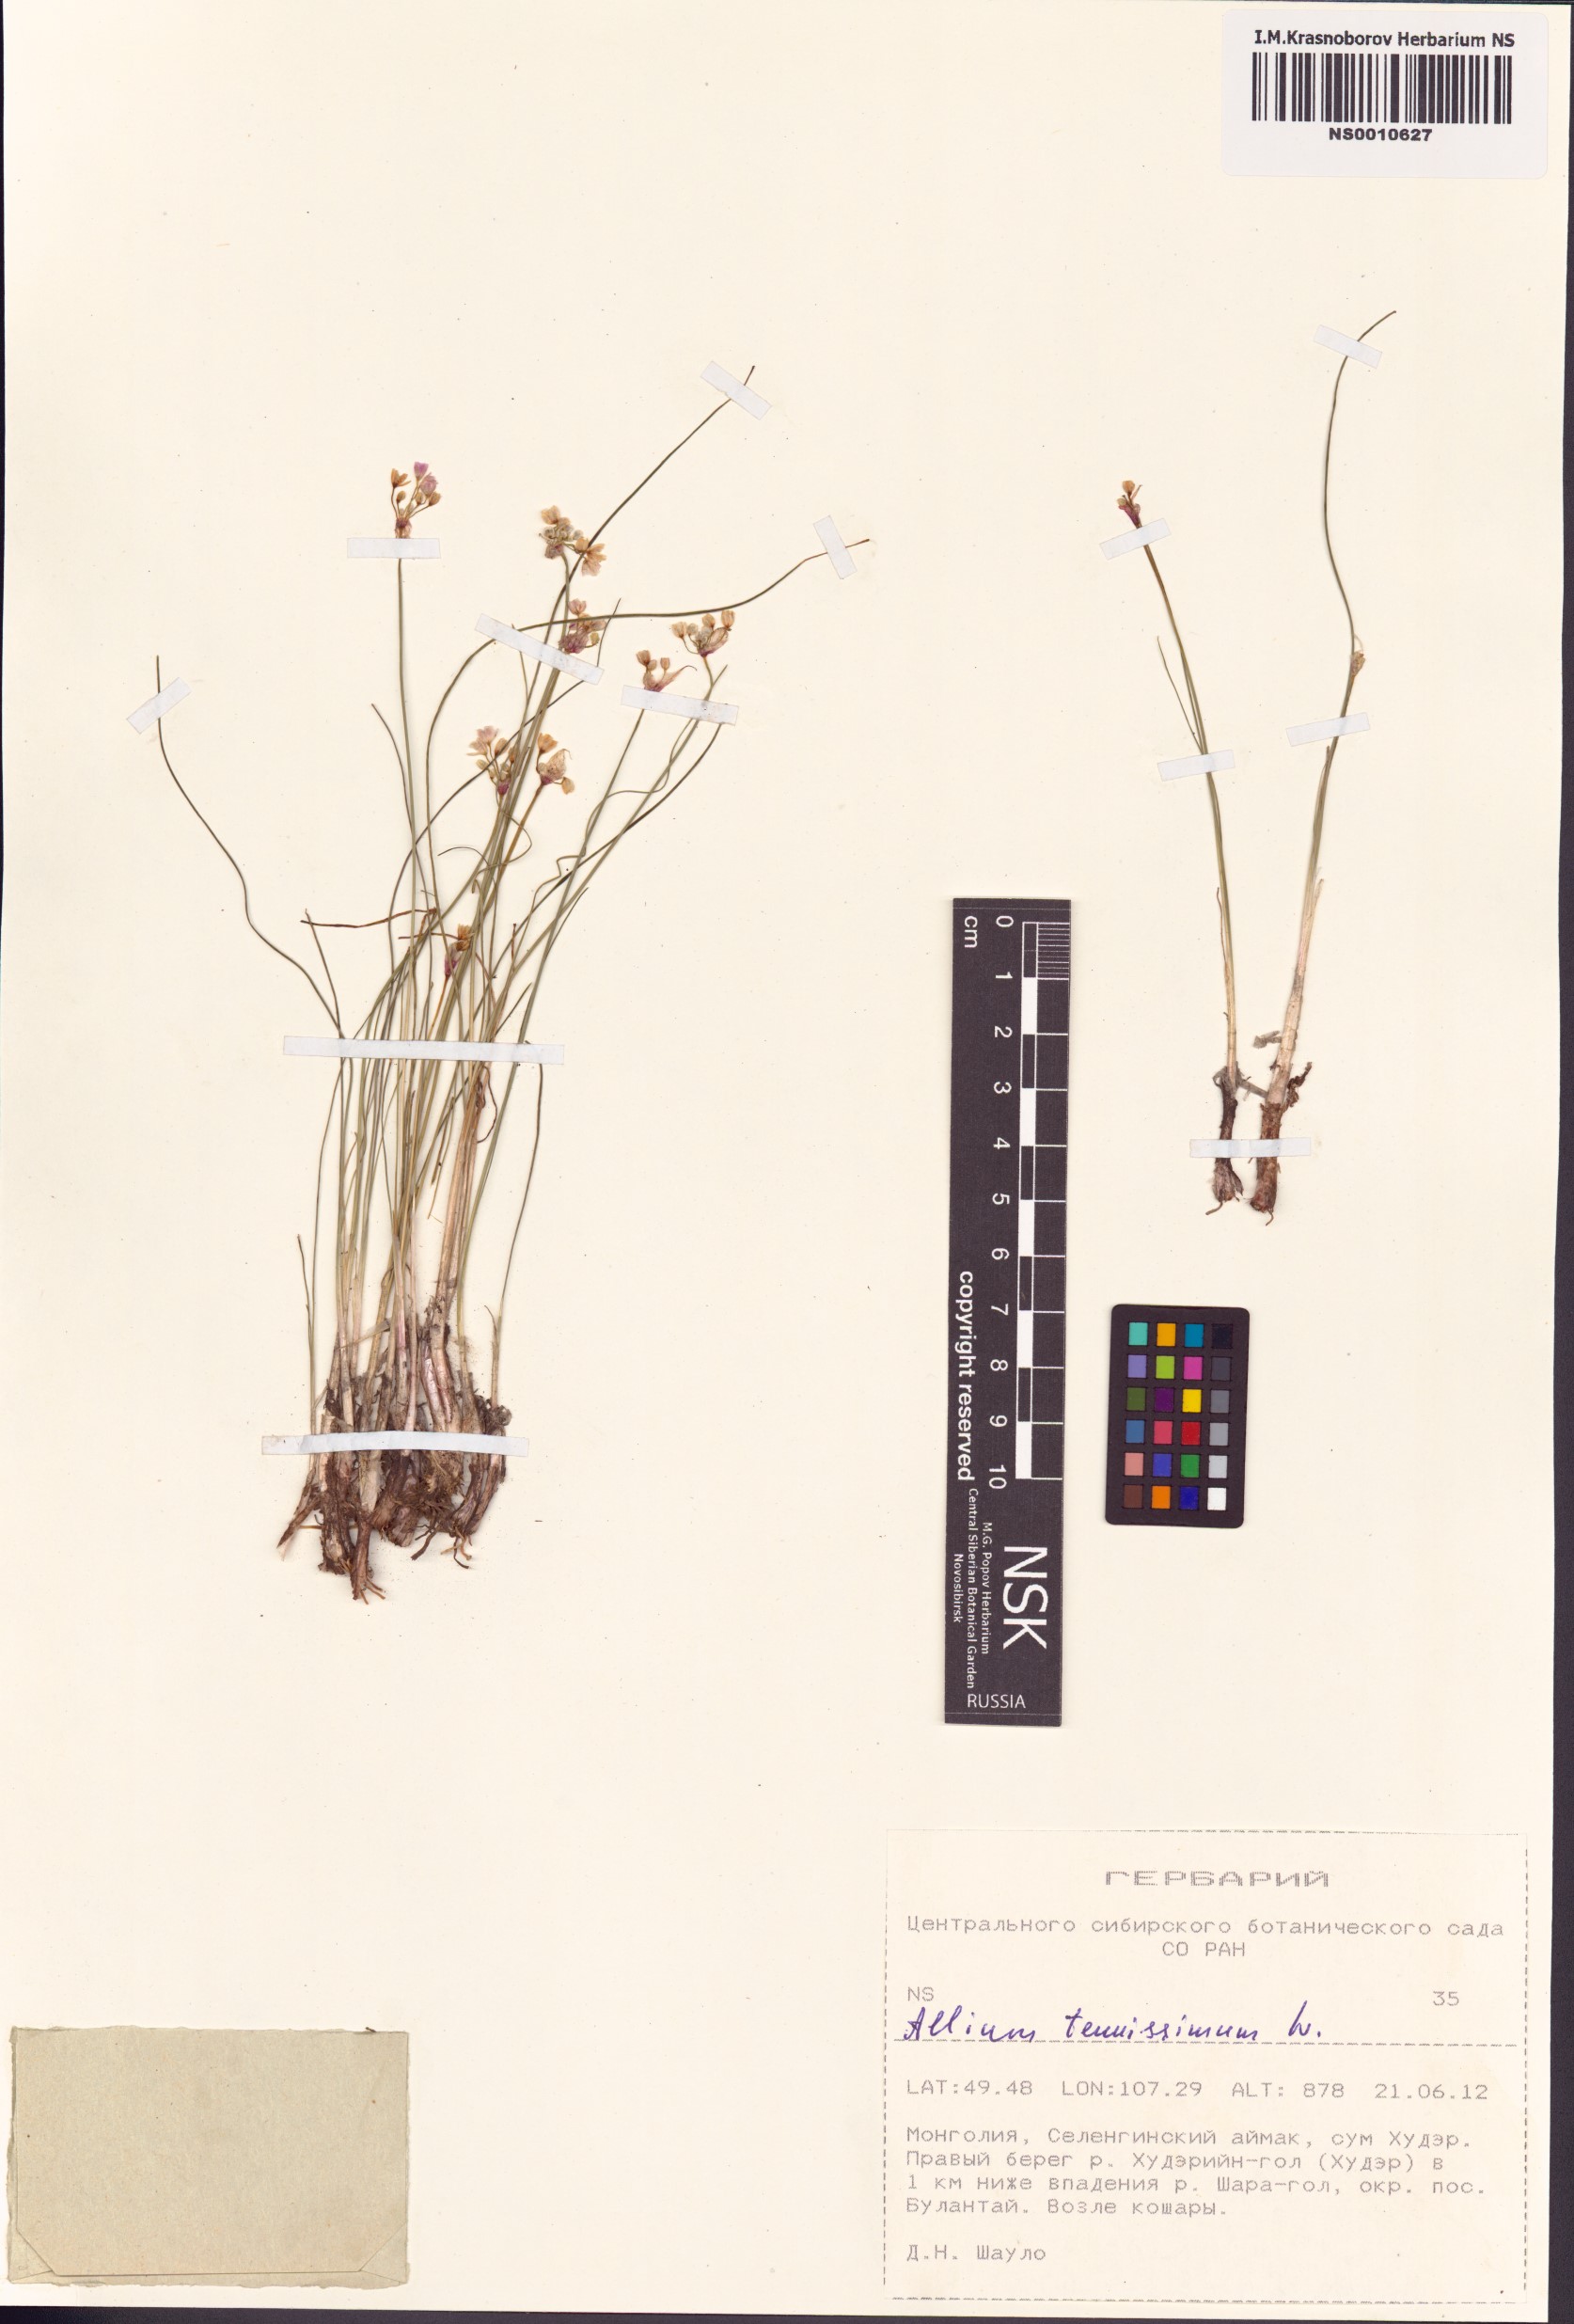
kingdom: Plantae
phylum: Tracheophyta
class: Liliopsida
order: Asparagales
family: Amaryllidaceae
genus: Allium
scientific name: Allium tenuissimum
